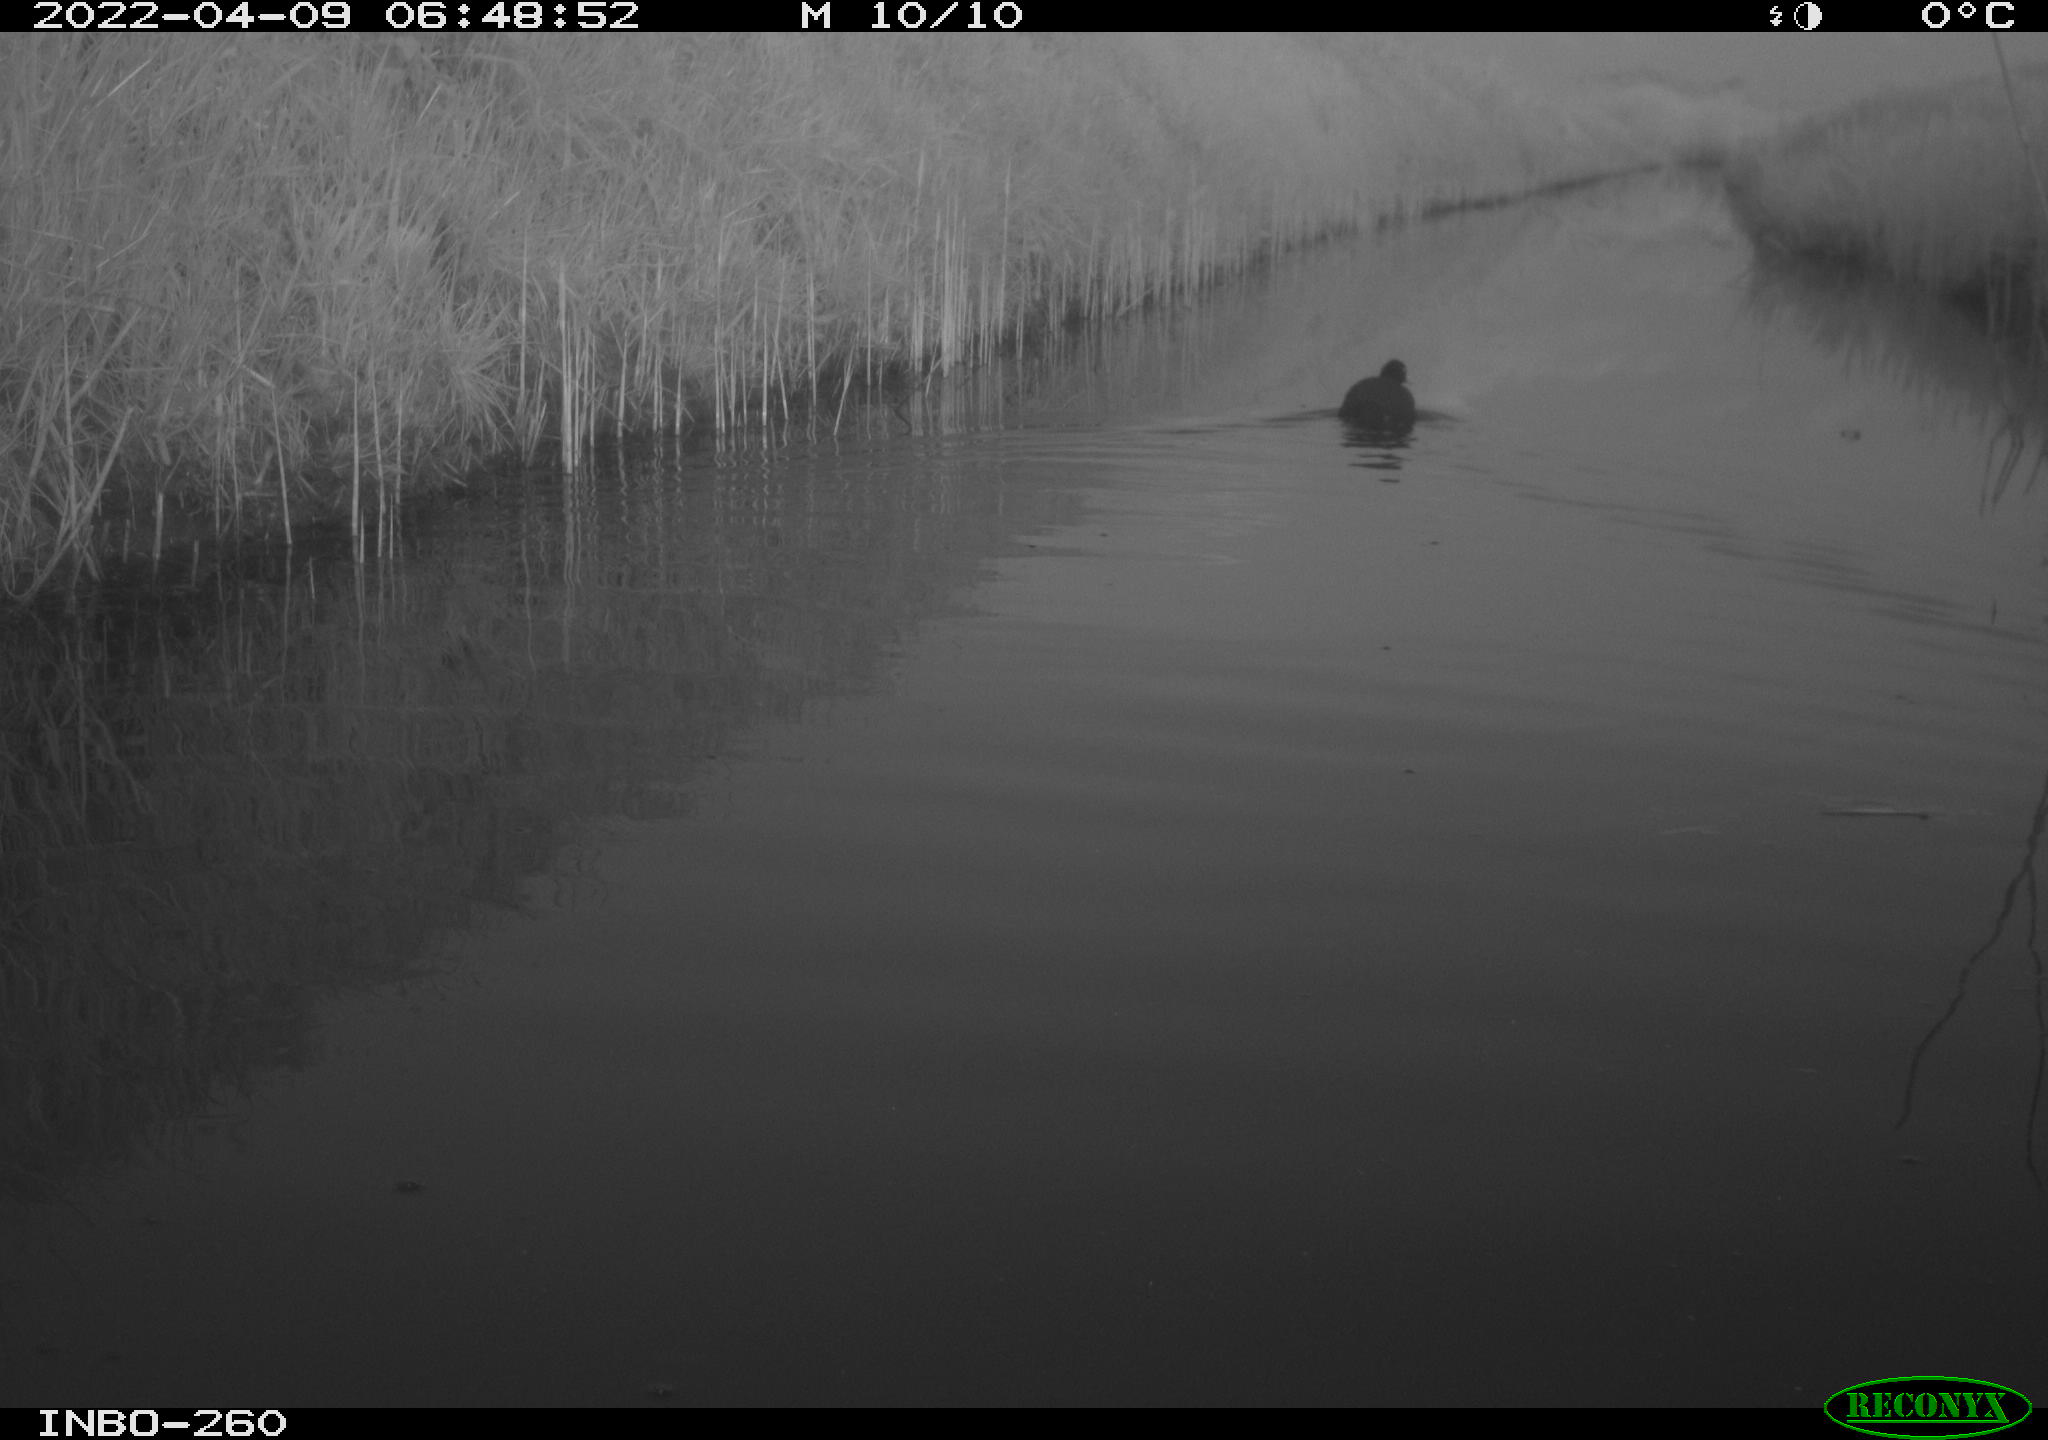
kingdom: Animalia
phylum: Chordata
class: Aves
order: Gruiformes
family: Rallidae
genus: Fulica
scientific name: Fulica atra
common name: Eurasian coot
